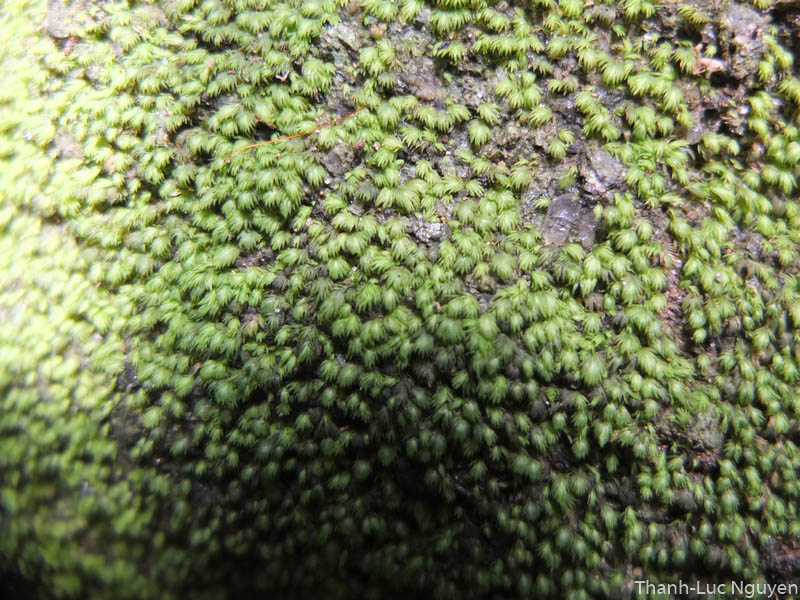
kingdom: Plantae
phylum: Bryophyta
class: Bryopsida
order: Dicranales
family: Fissidentaceae
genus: Fissidens
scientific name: Fissidens
